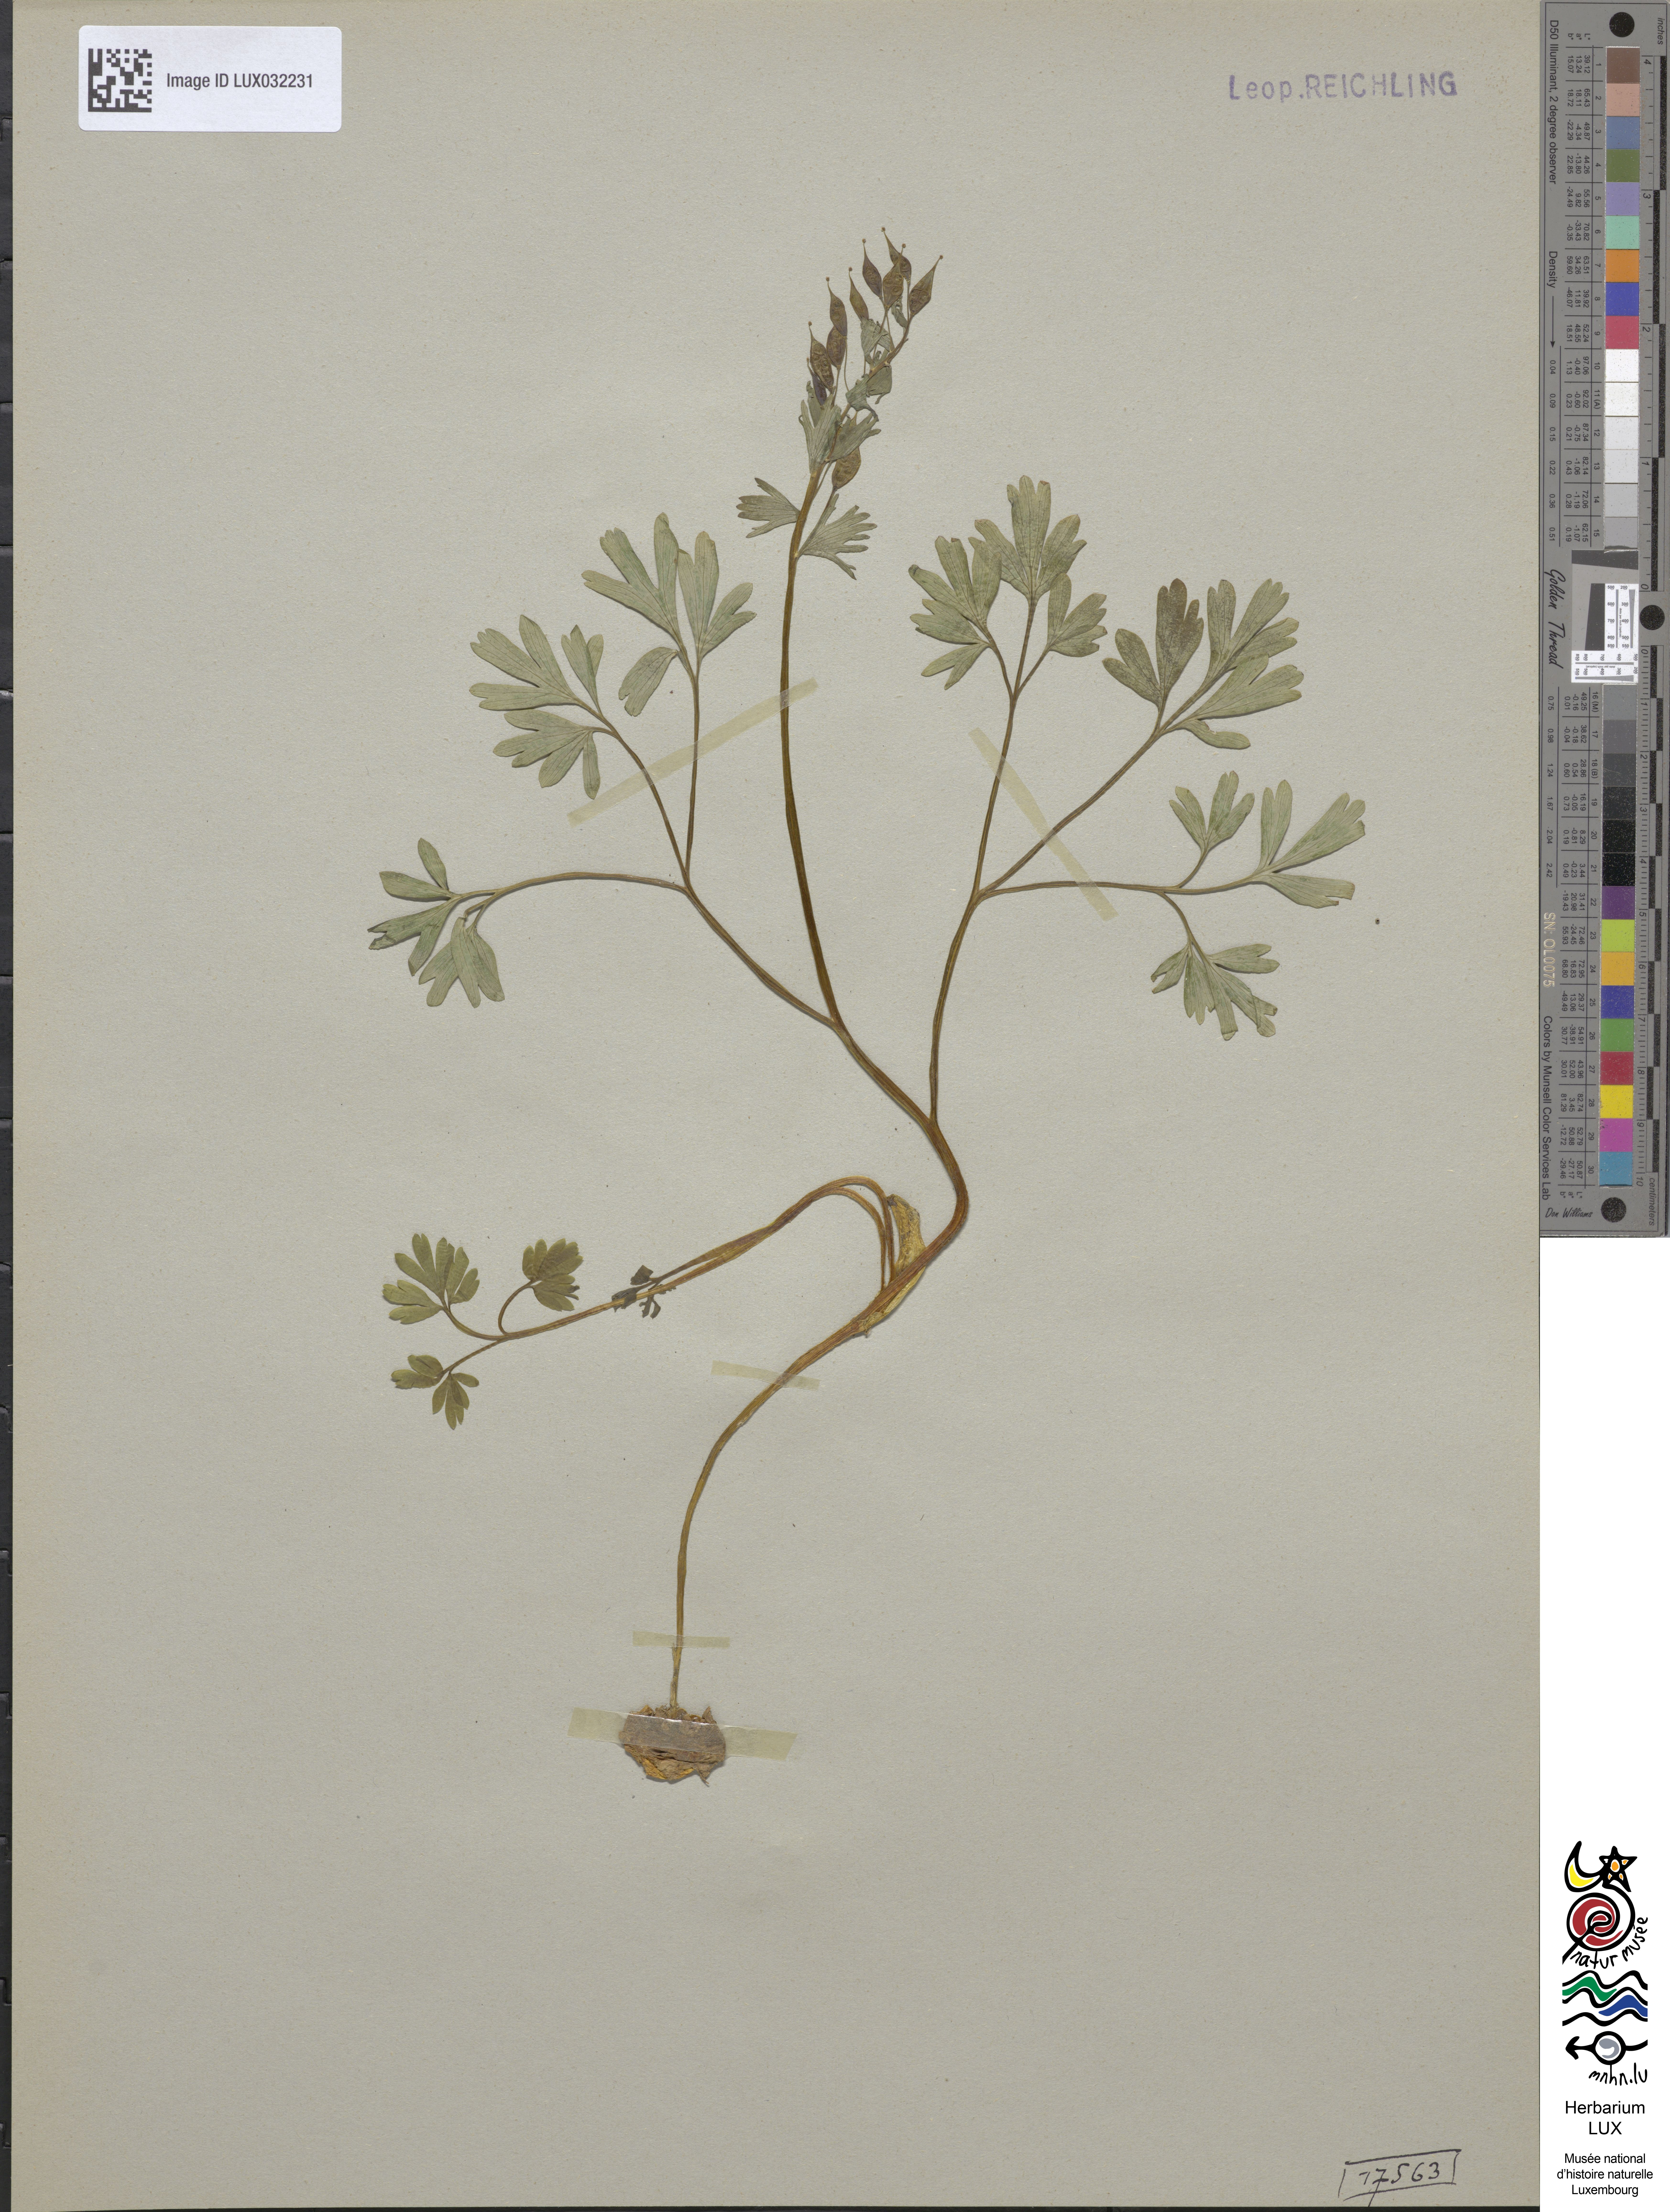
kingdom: Plantae
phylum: Tracheophyta
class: Magnoliopsida
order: Ranunculales
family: Papaveraceae
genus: Corydalis
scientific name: Corydalis solida
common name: Bird-in-a-bush
